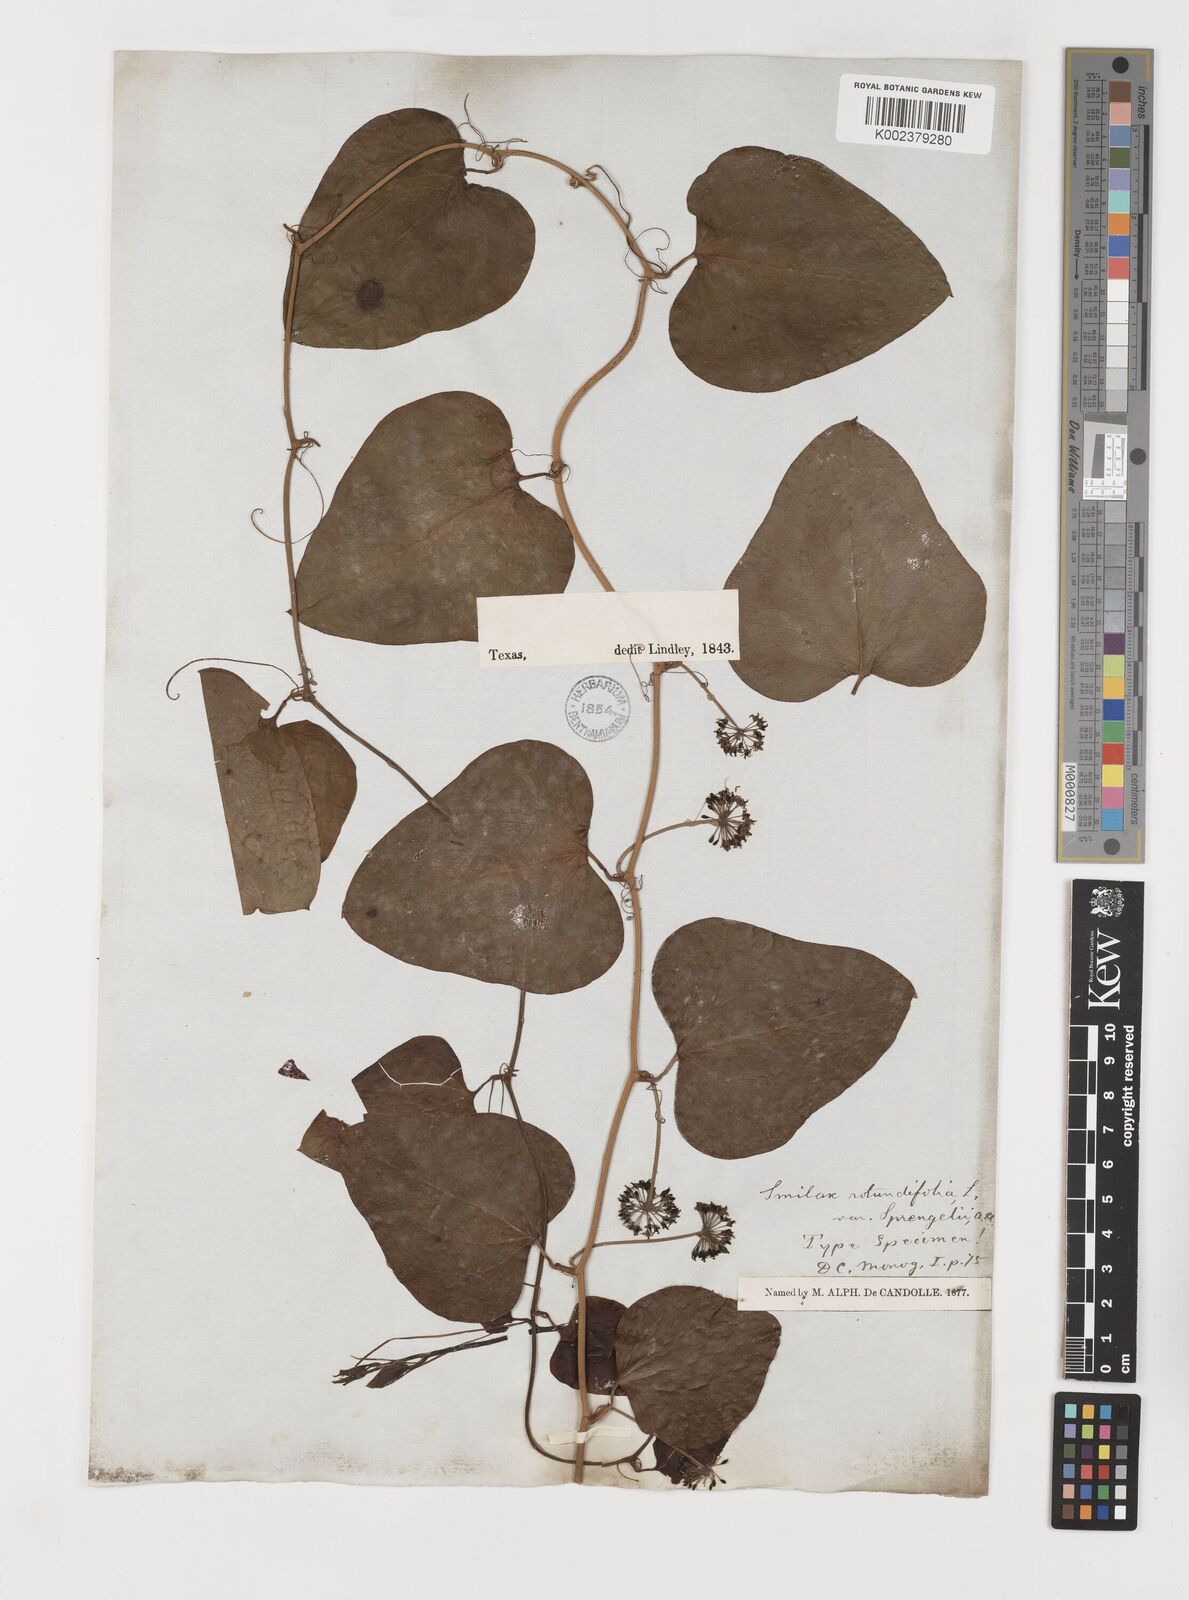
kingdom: Plantae
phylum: Tracheophyta
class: Liliopsida
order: Liliales
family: Smilacaceae
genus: Smilax
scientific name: Smilax rotundifolia
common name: Bullbriar
